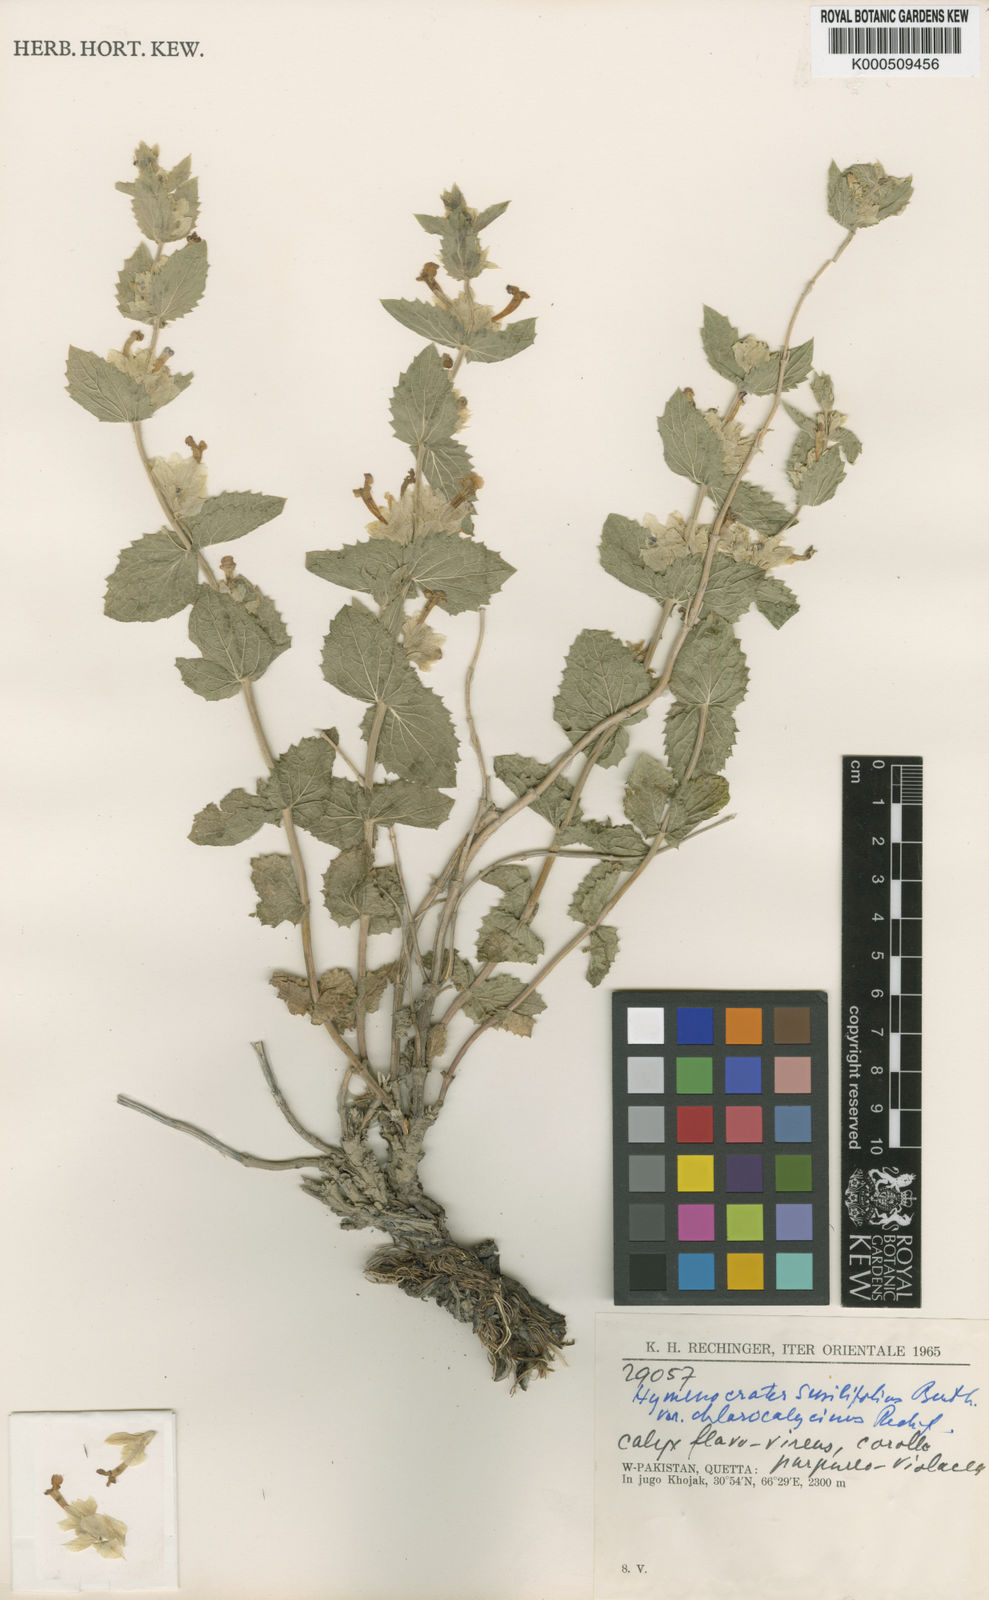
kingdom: Plantae
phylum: Tracheophyta
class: Magnoliopsida
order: Lamiales
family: Lamiaceae
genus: Nepeta
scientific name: Nepeta argutidens
